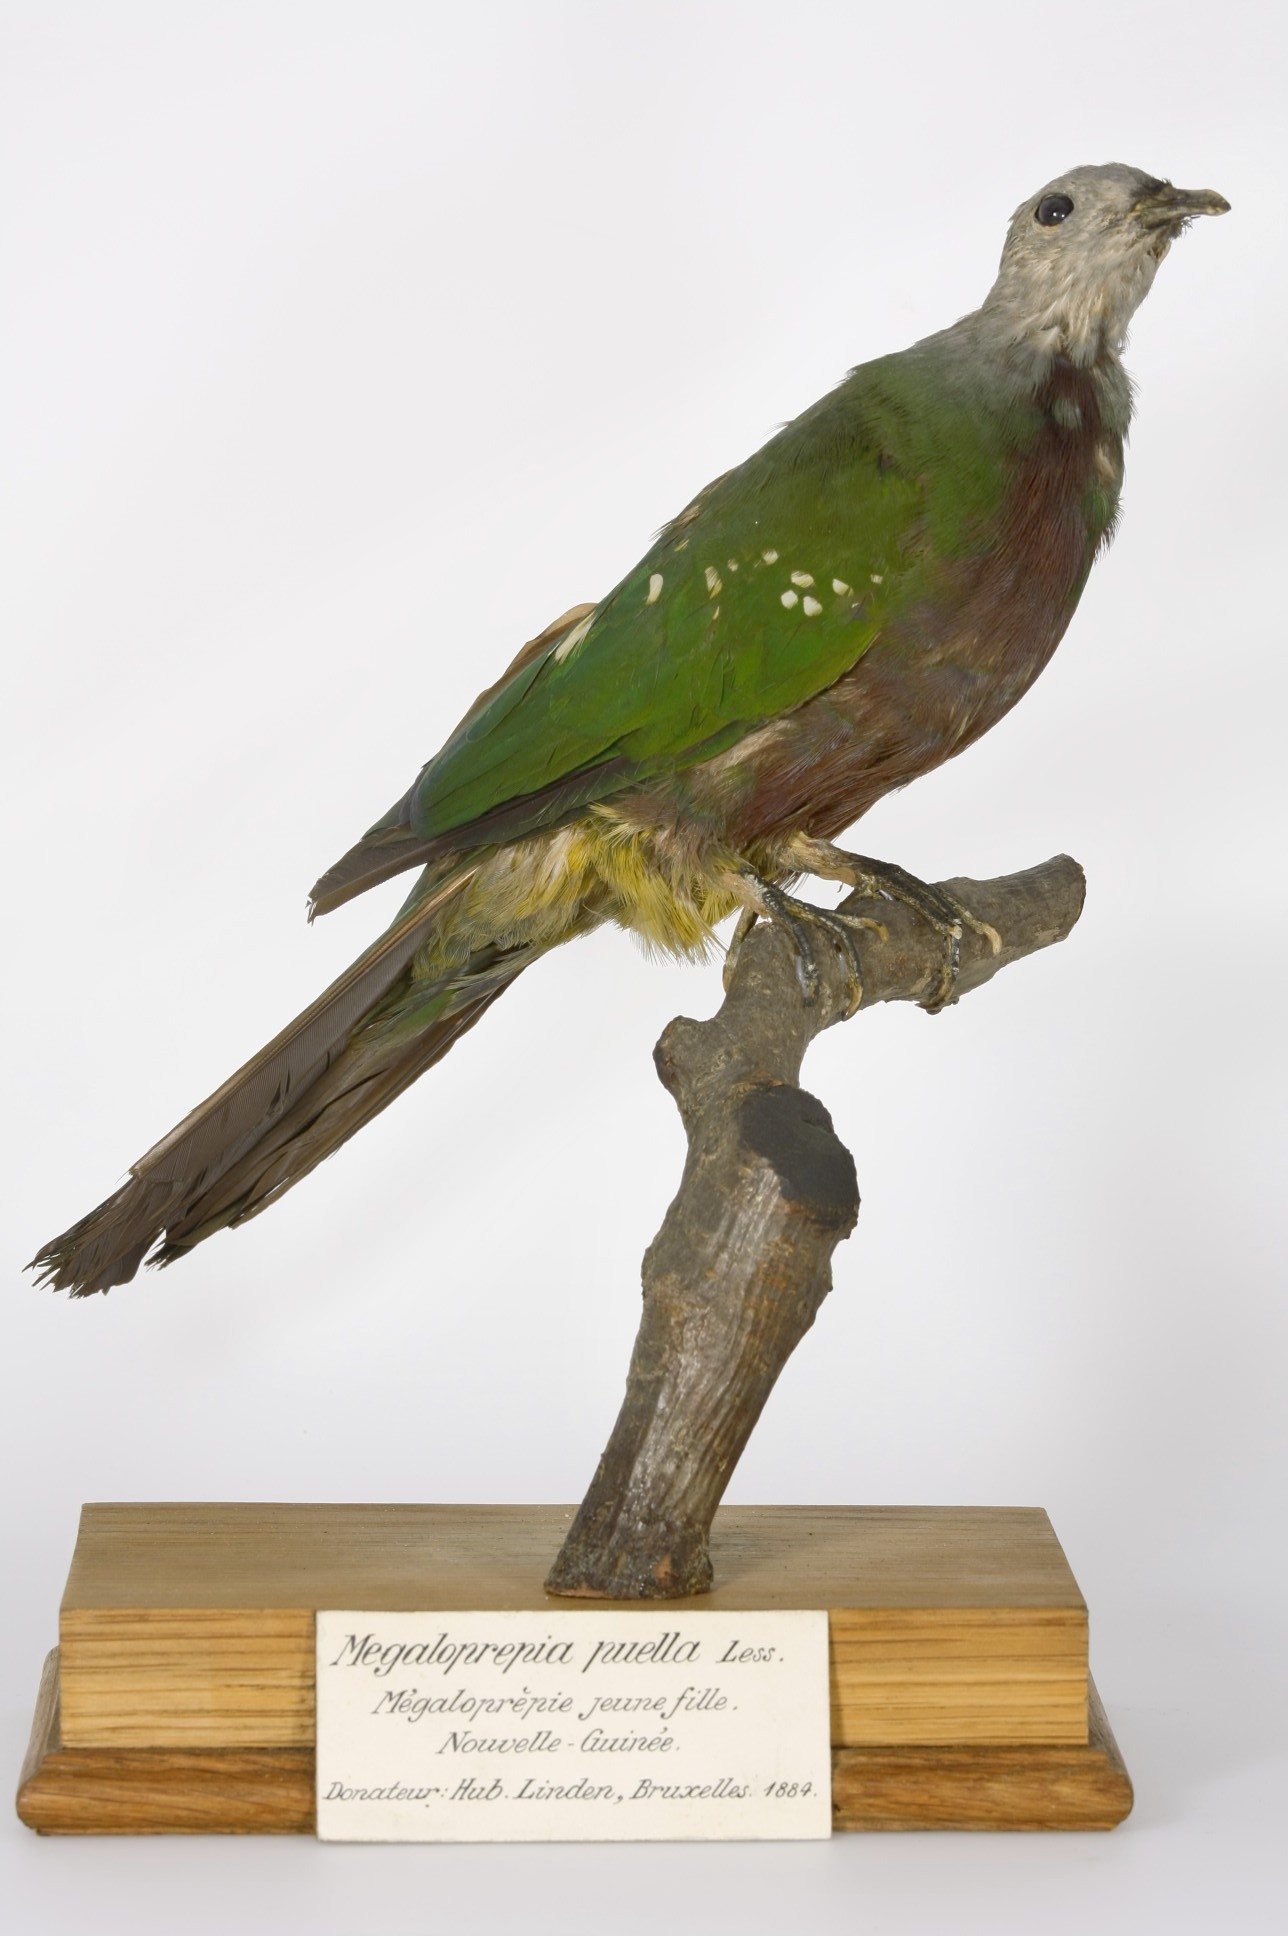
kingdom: Animalia
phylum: Chordata
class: Aves
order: Columbiformes
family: Columbidae
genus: Ptilinopus
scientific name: Ptilinopus magnificus
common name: Wompoo fruit dove
